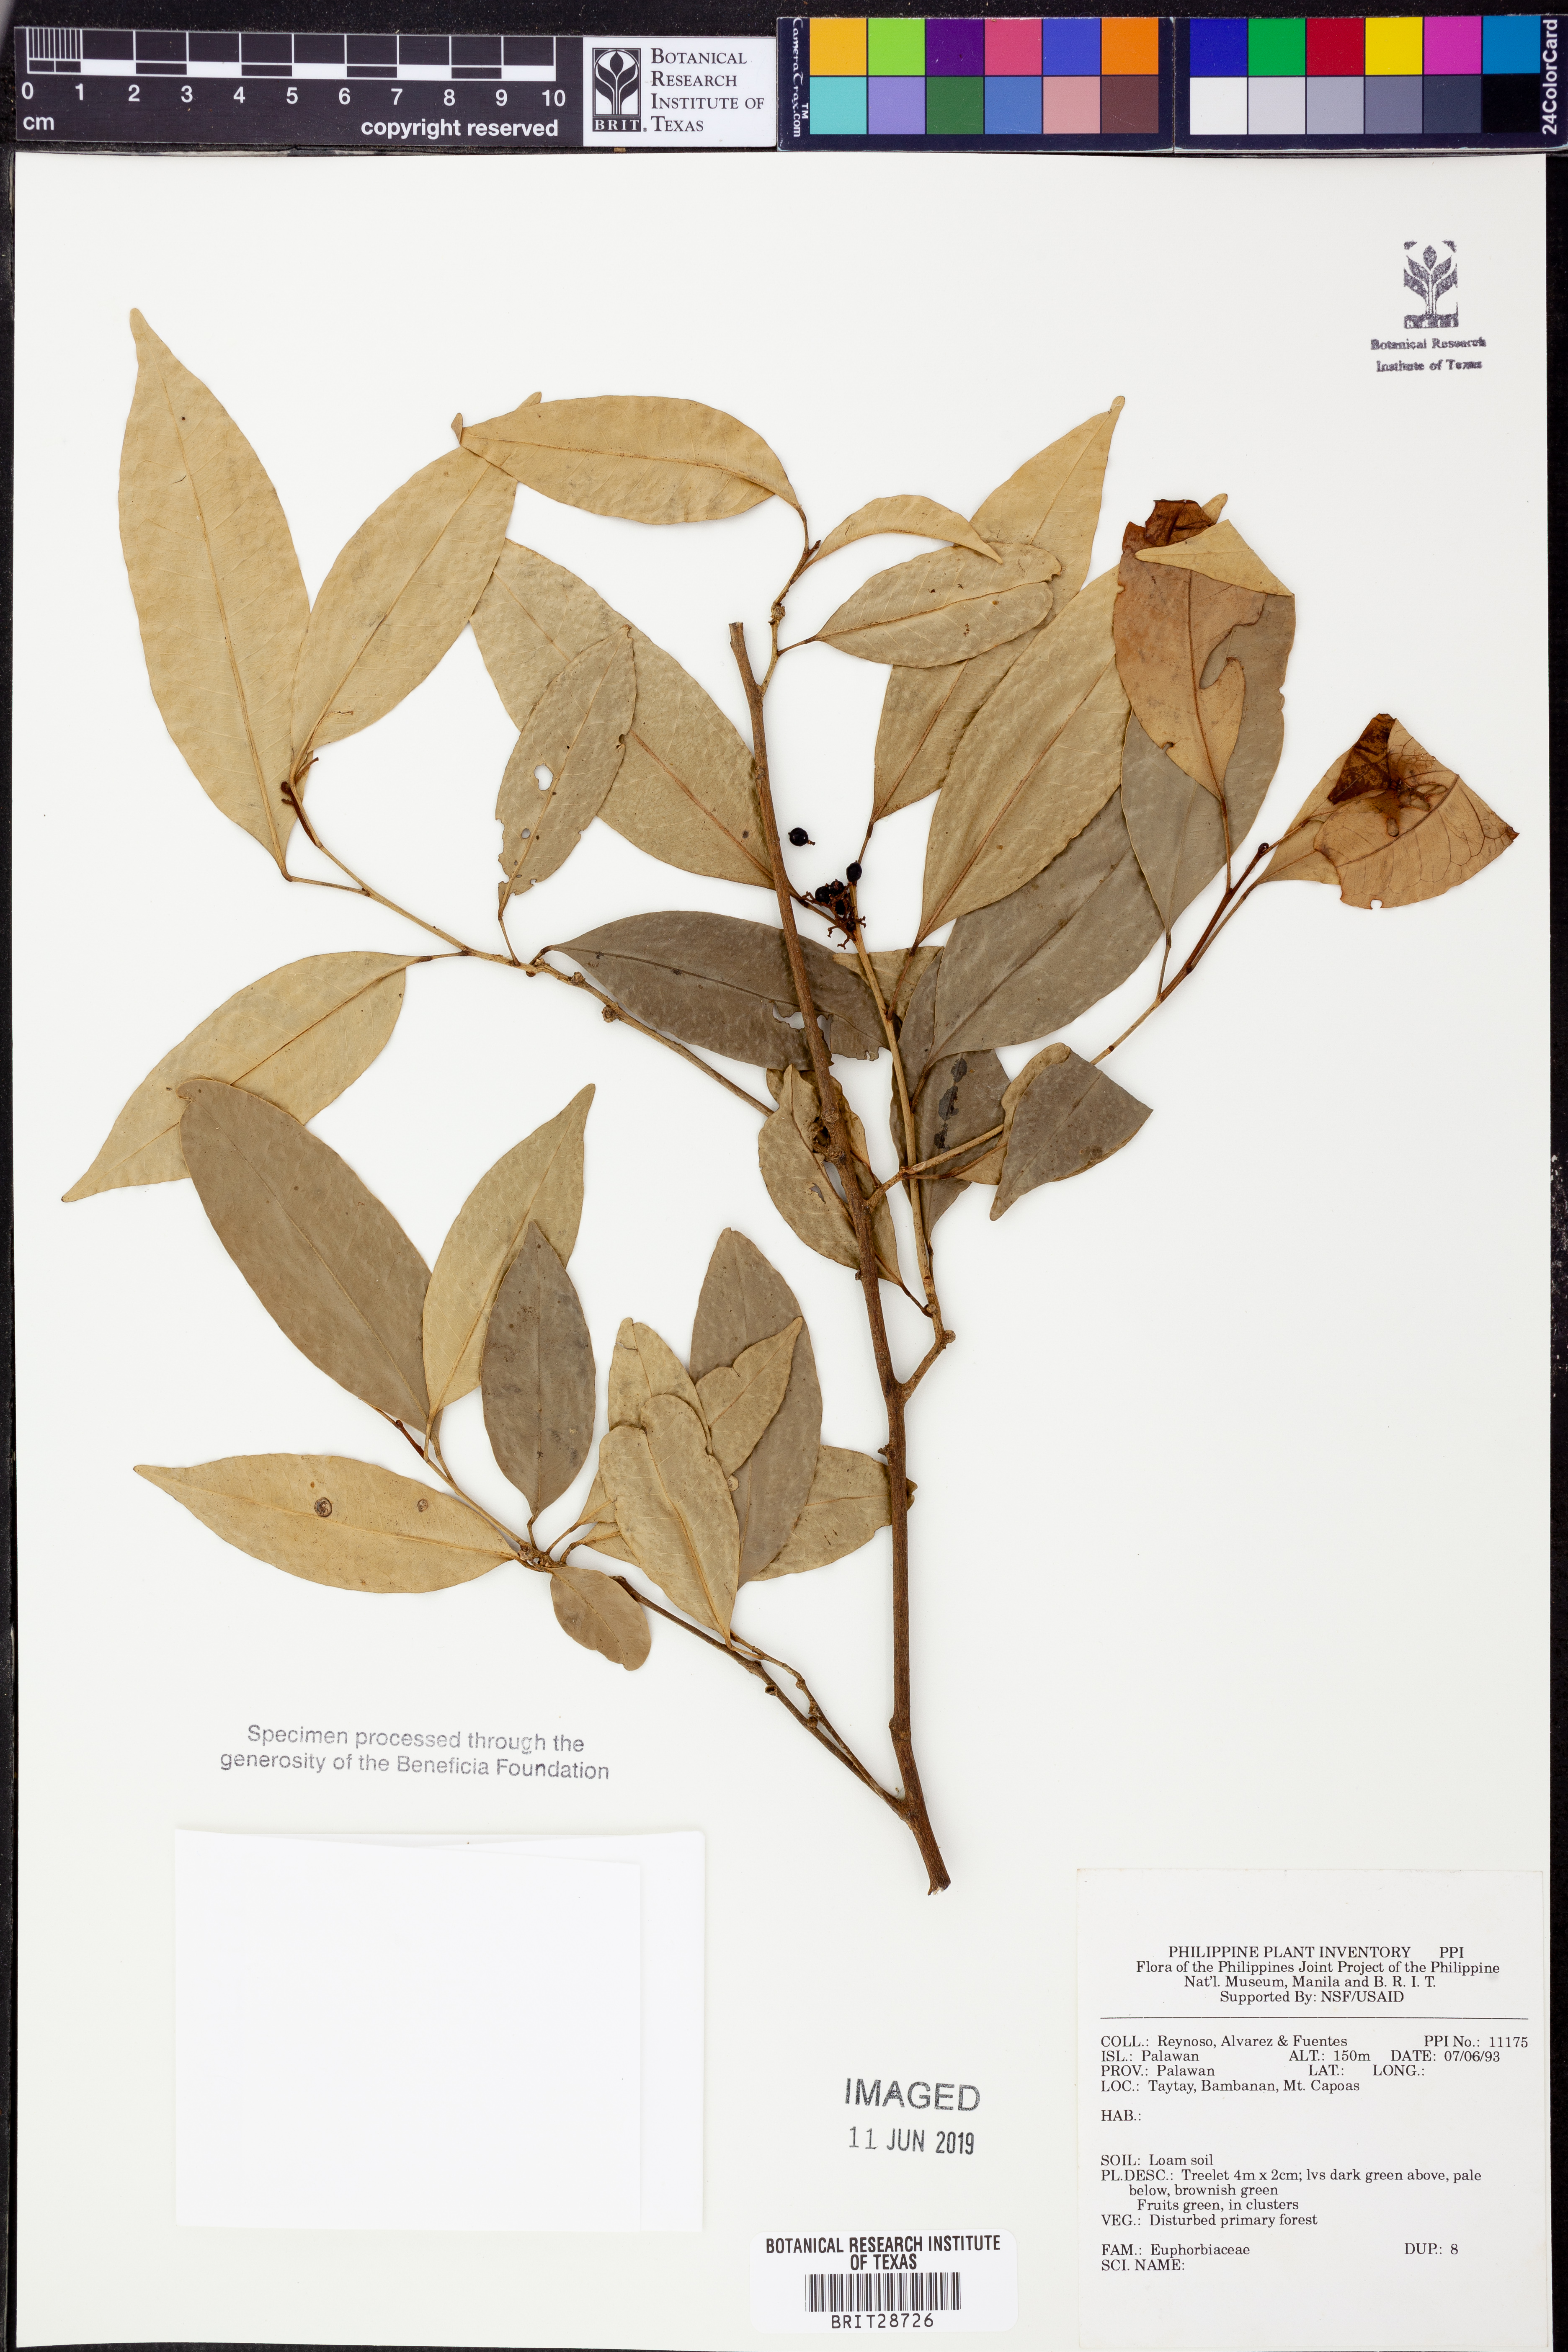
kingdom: Plantae
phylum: Tracheophyta
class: Magnoliopsida
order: Malpighiales
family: Euphorbiaceae
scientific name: Euphorbiaceae
